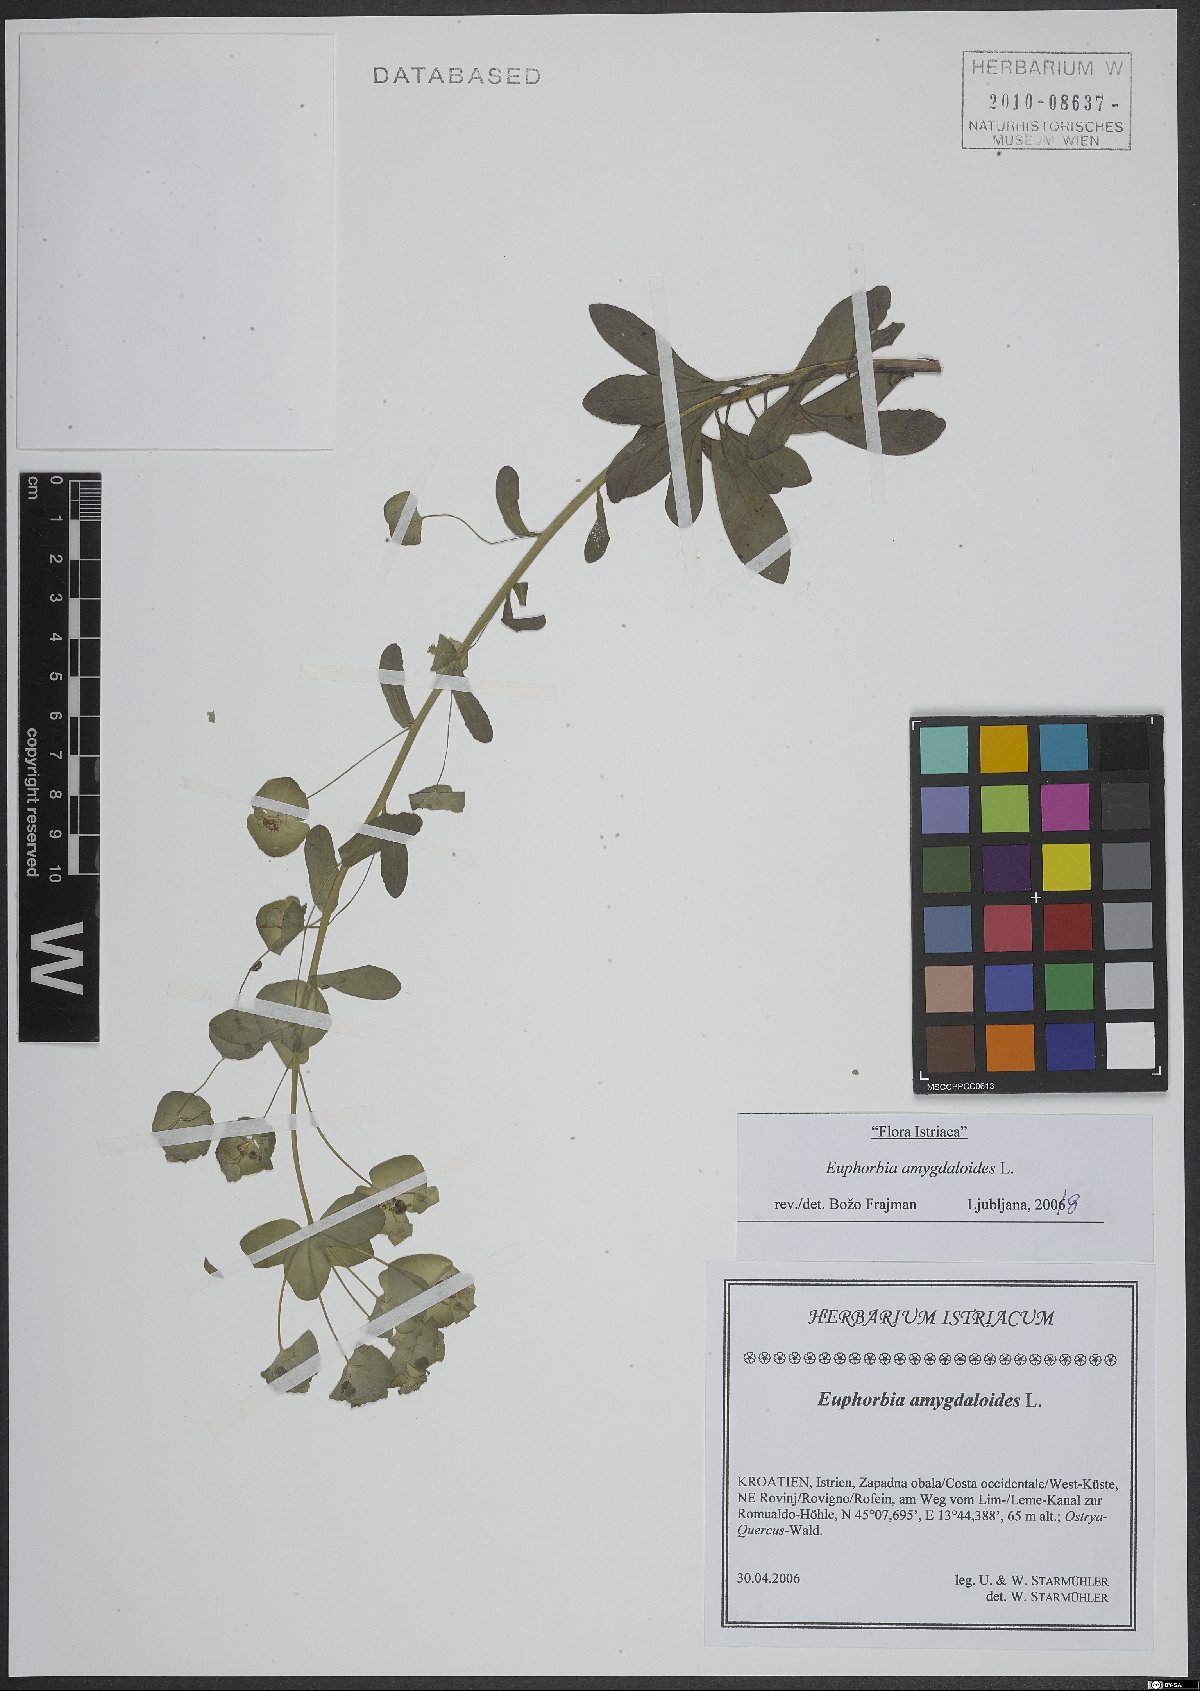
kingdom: Plantae
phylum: Tracheophyta
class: Magnoliopsida
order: Malpighiales
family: Euphorbiaceae
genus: Euphorbia
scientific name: Euphorbia amygdaloides
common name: Wood spurge
